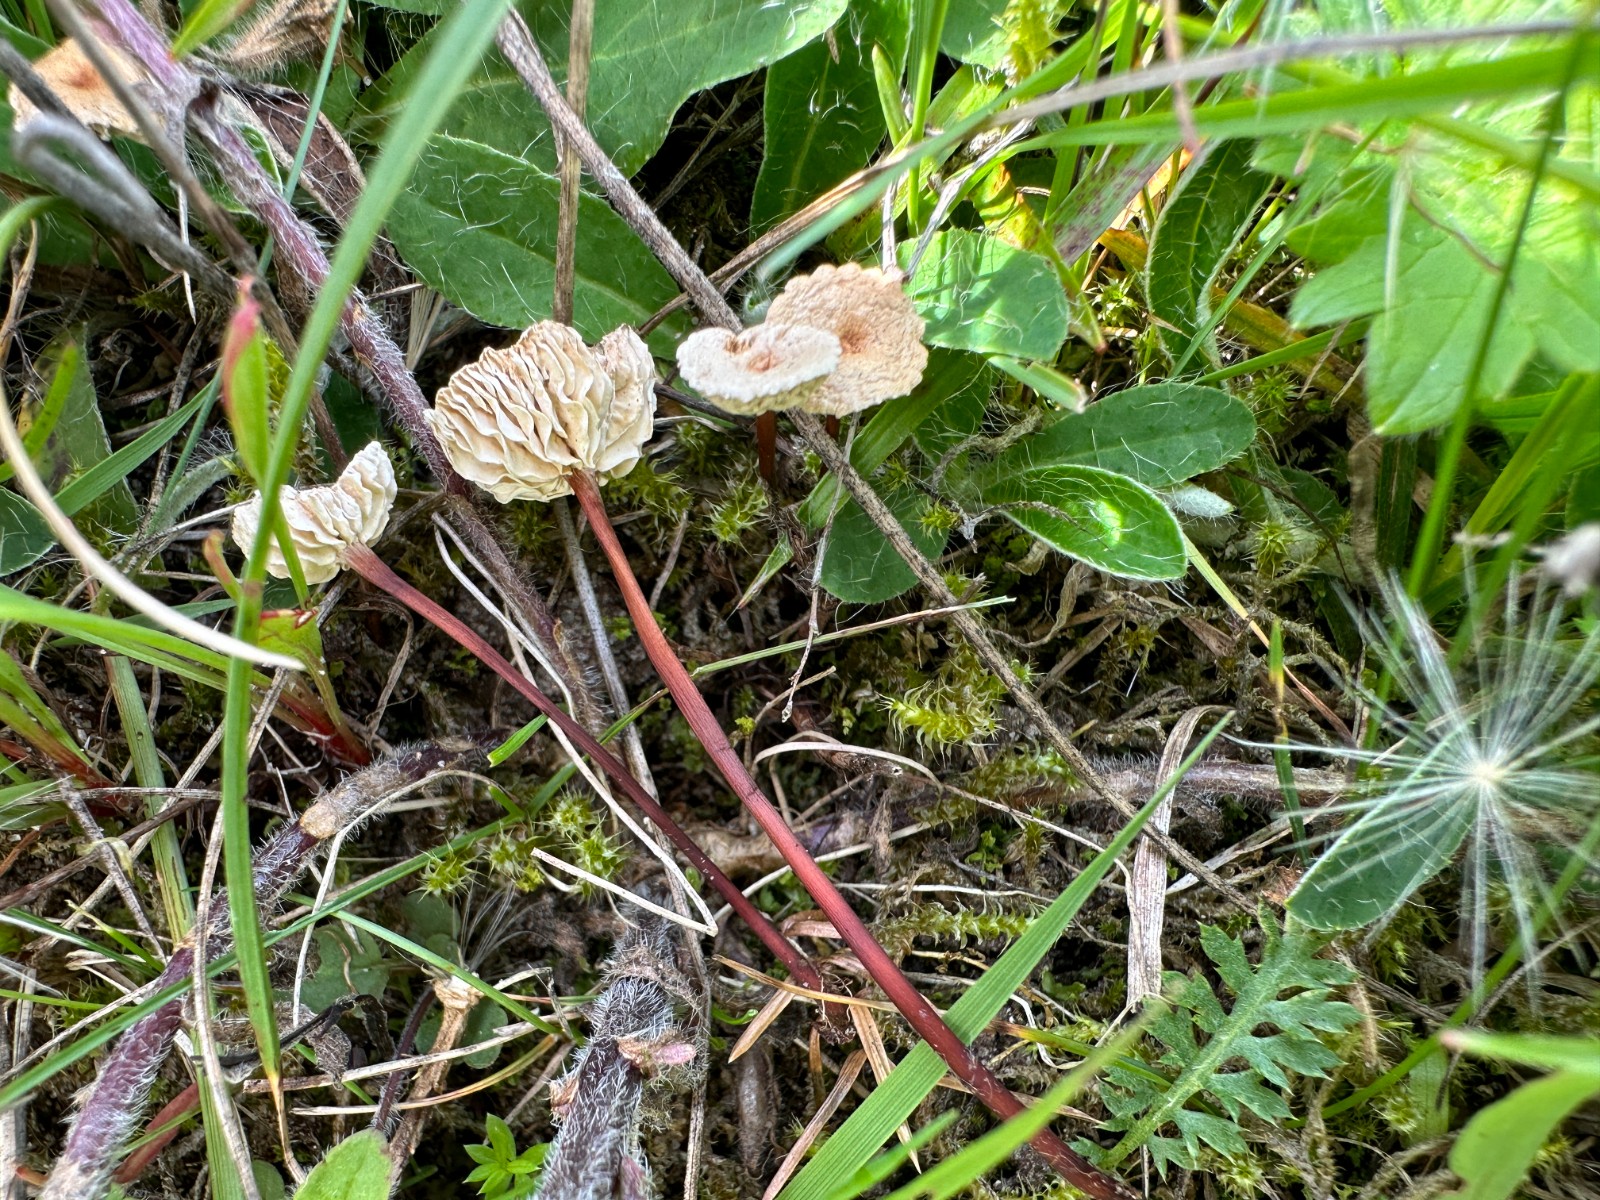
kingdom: Fungi
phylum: Basidiomycota
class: Agaricomycetes
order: Agaricales
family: Omphalotaceae
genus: Mycetinis
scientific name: Mycetinis scorodonius
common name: lille løghat
